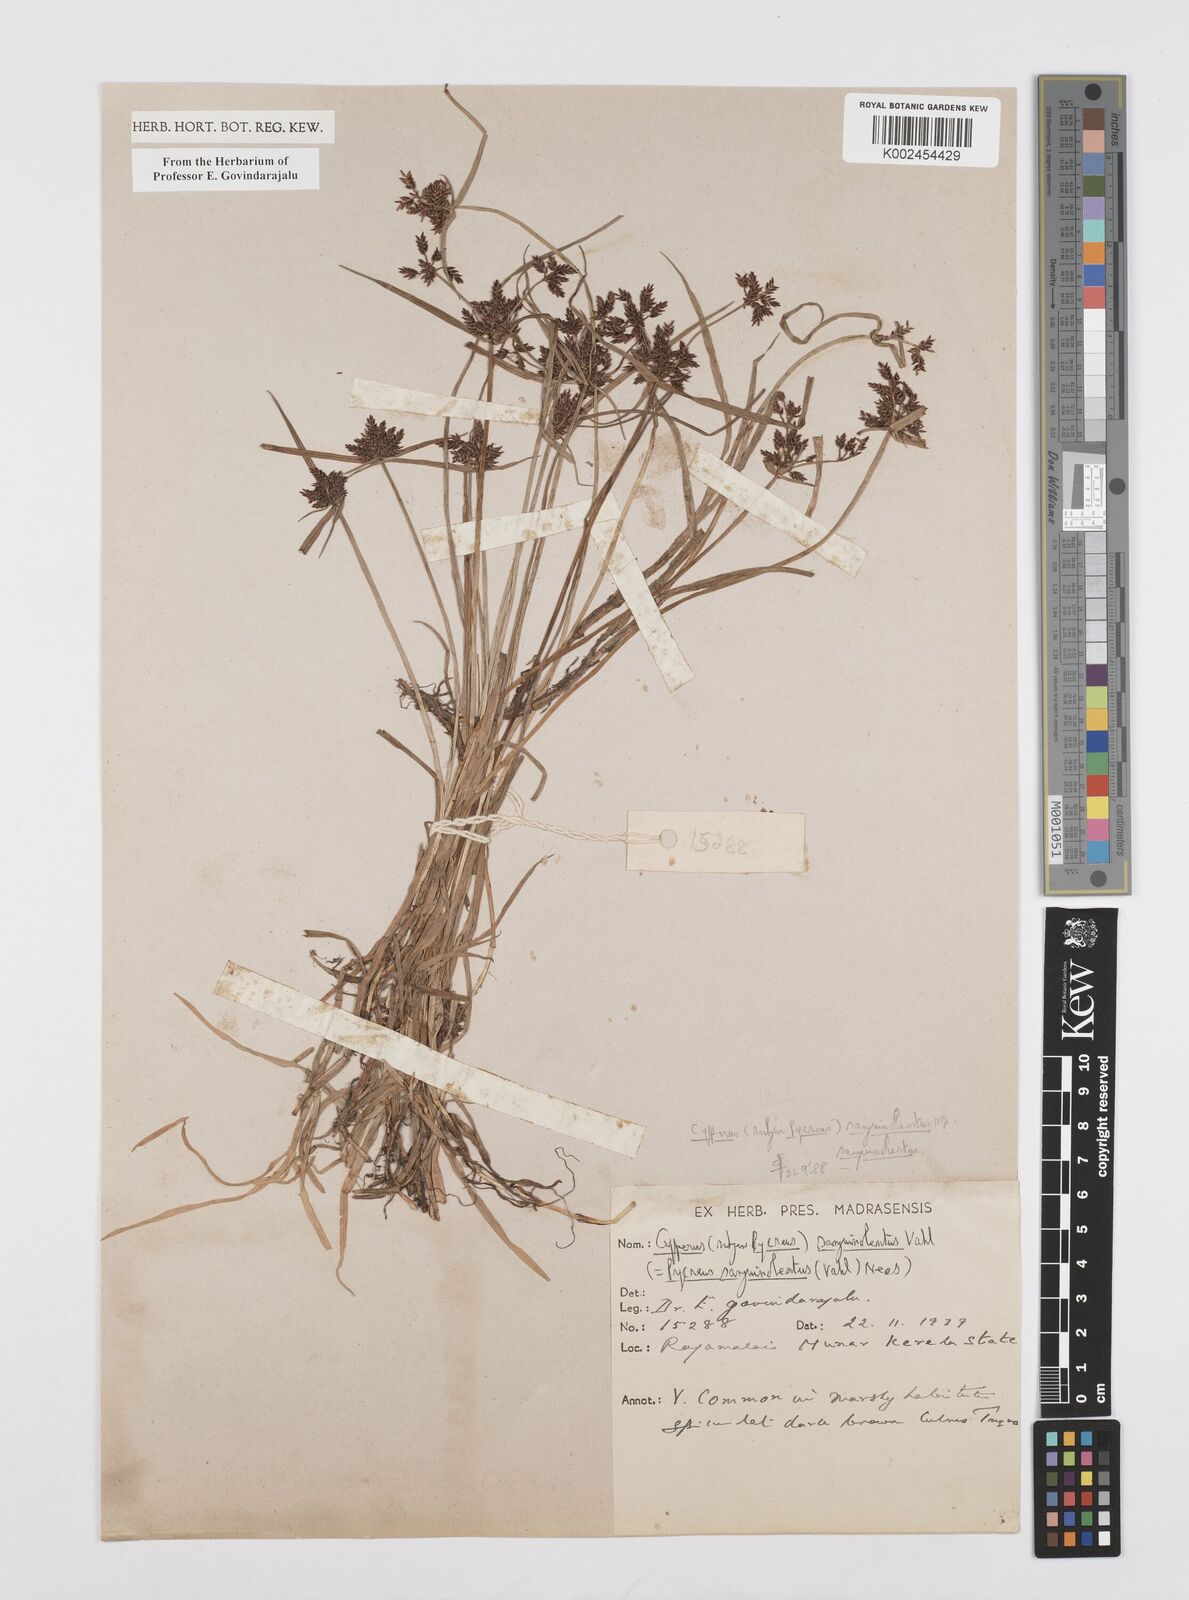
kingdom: Plantae
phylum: Tracheophyta
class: Liliopsida
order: Poales
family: Cyperaceae
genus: Cyperus
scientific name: Cyperus sanguinolentus
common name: Purpleglume flatsedge
